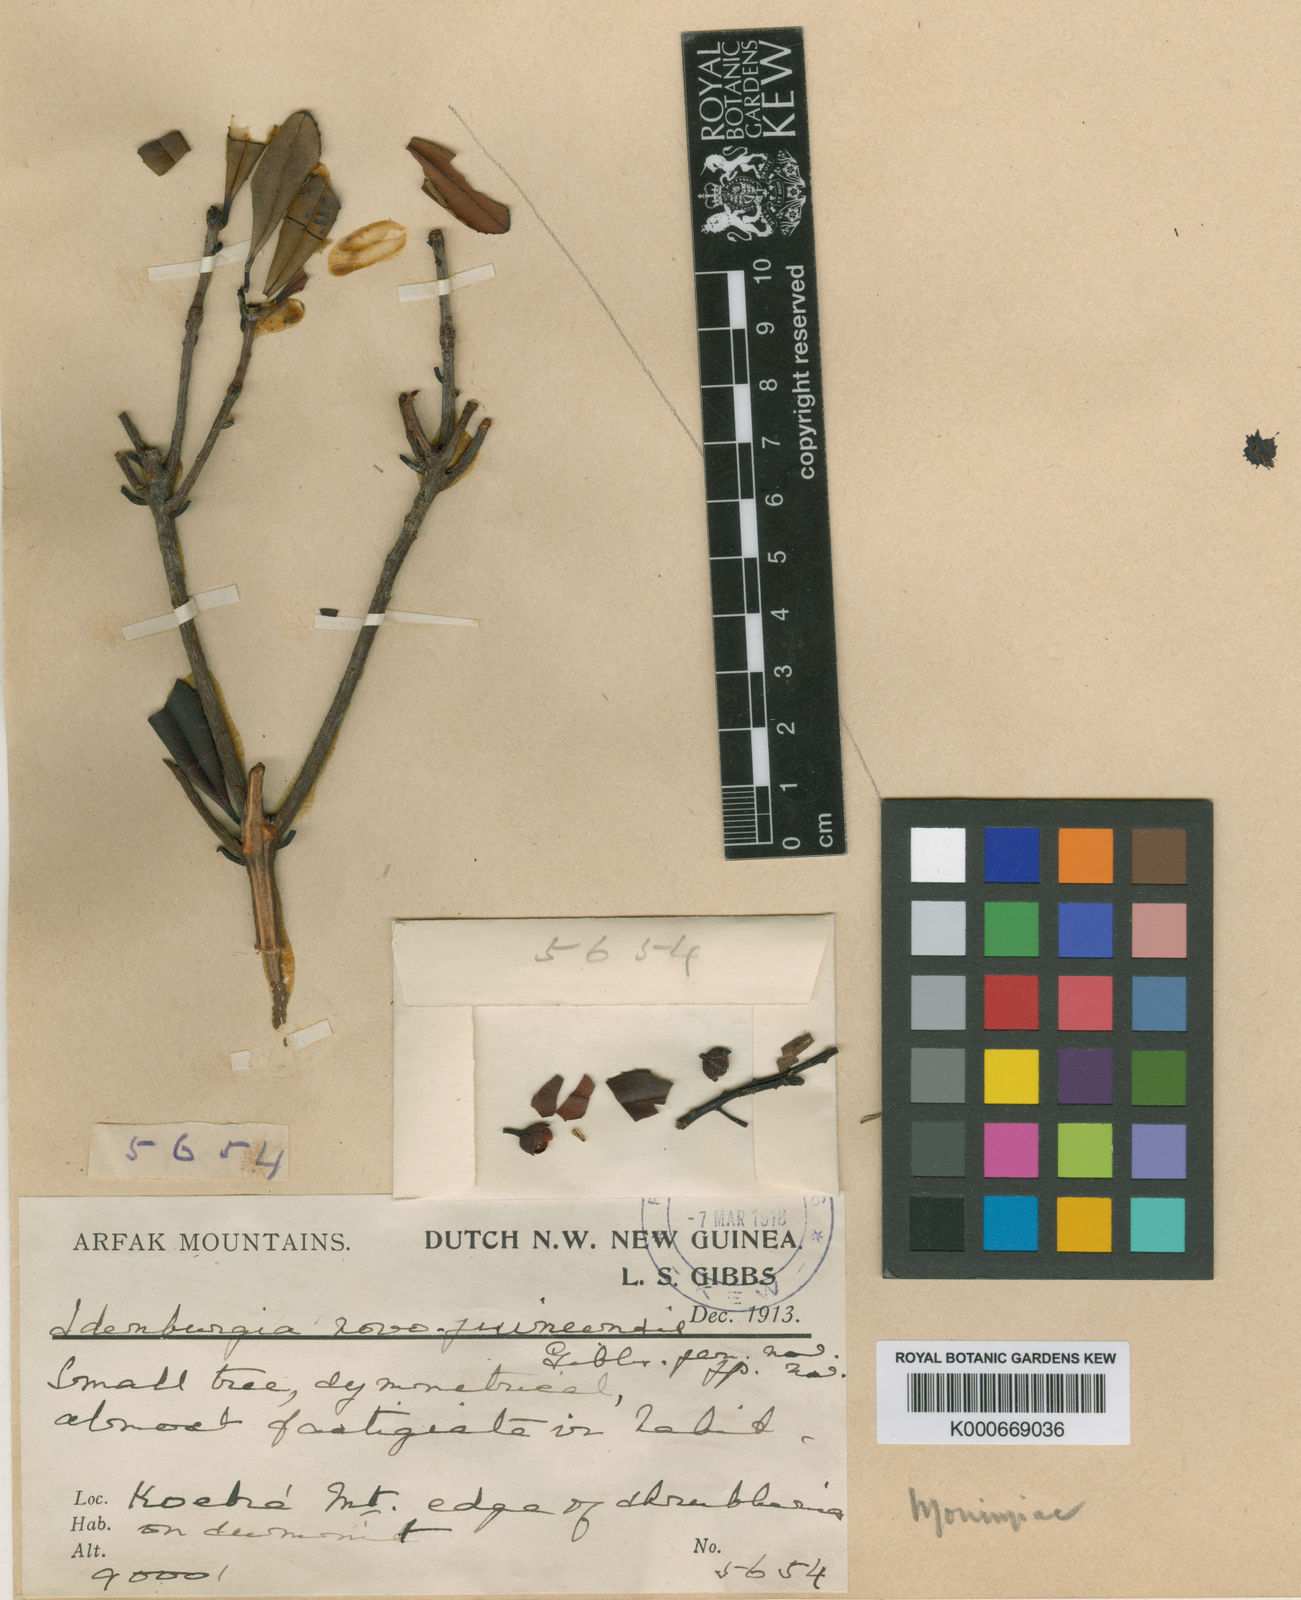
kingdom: Plantae
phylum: Tracheophyta
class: Magnoliopsida
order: Paracryphiales
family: Paracryphiaceae
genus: Sphenostemon
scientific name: Sphenostemon papuanus
